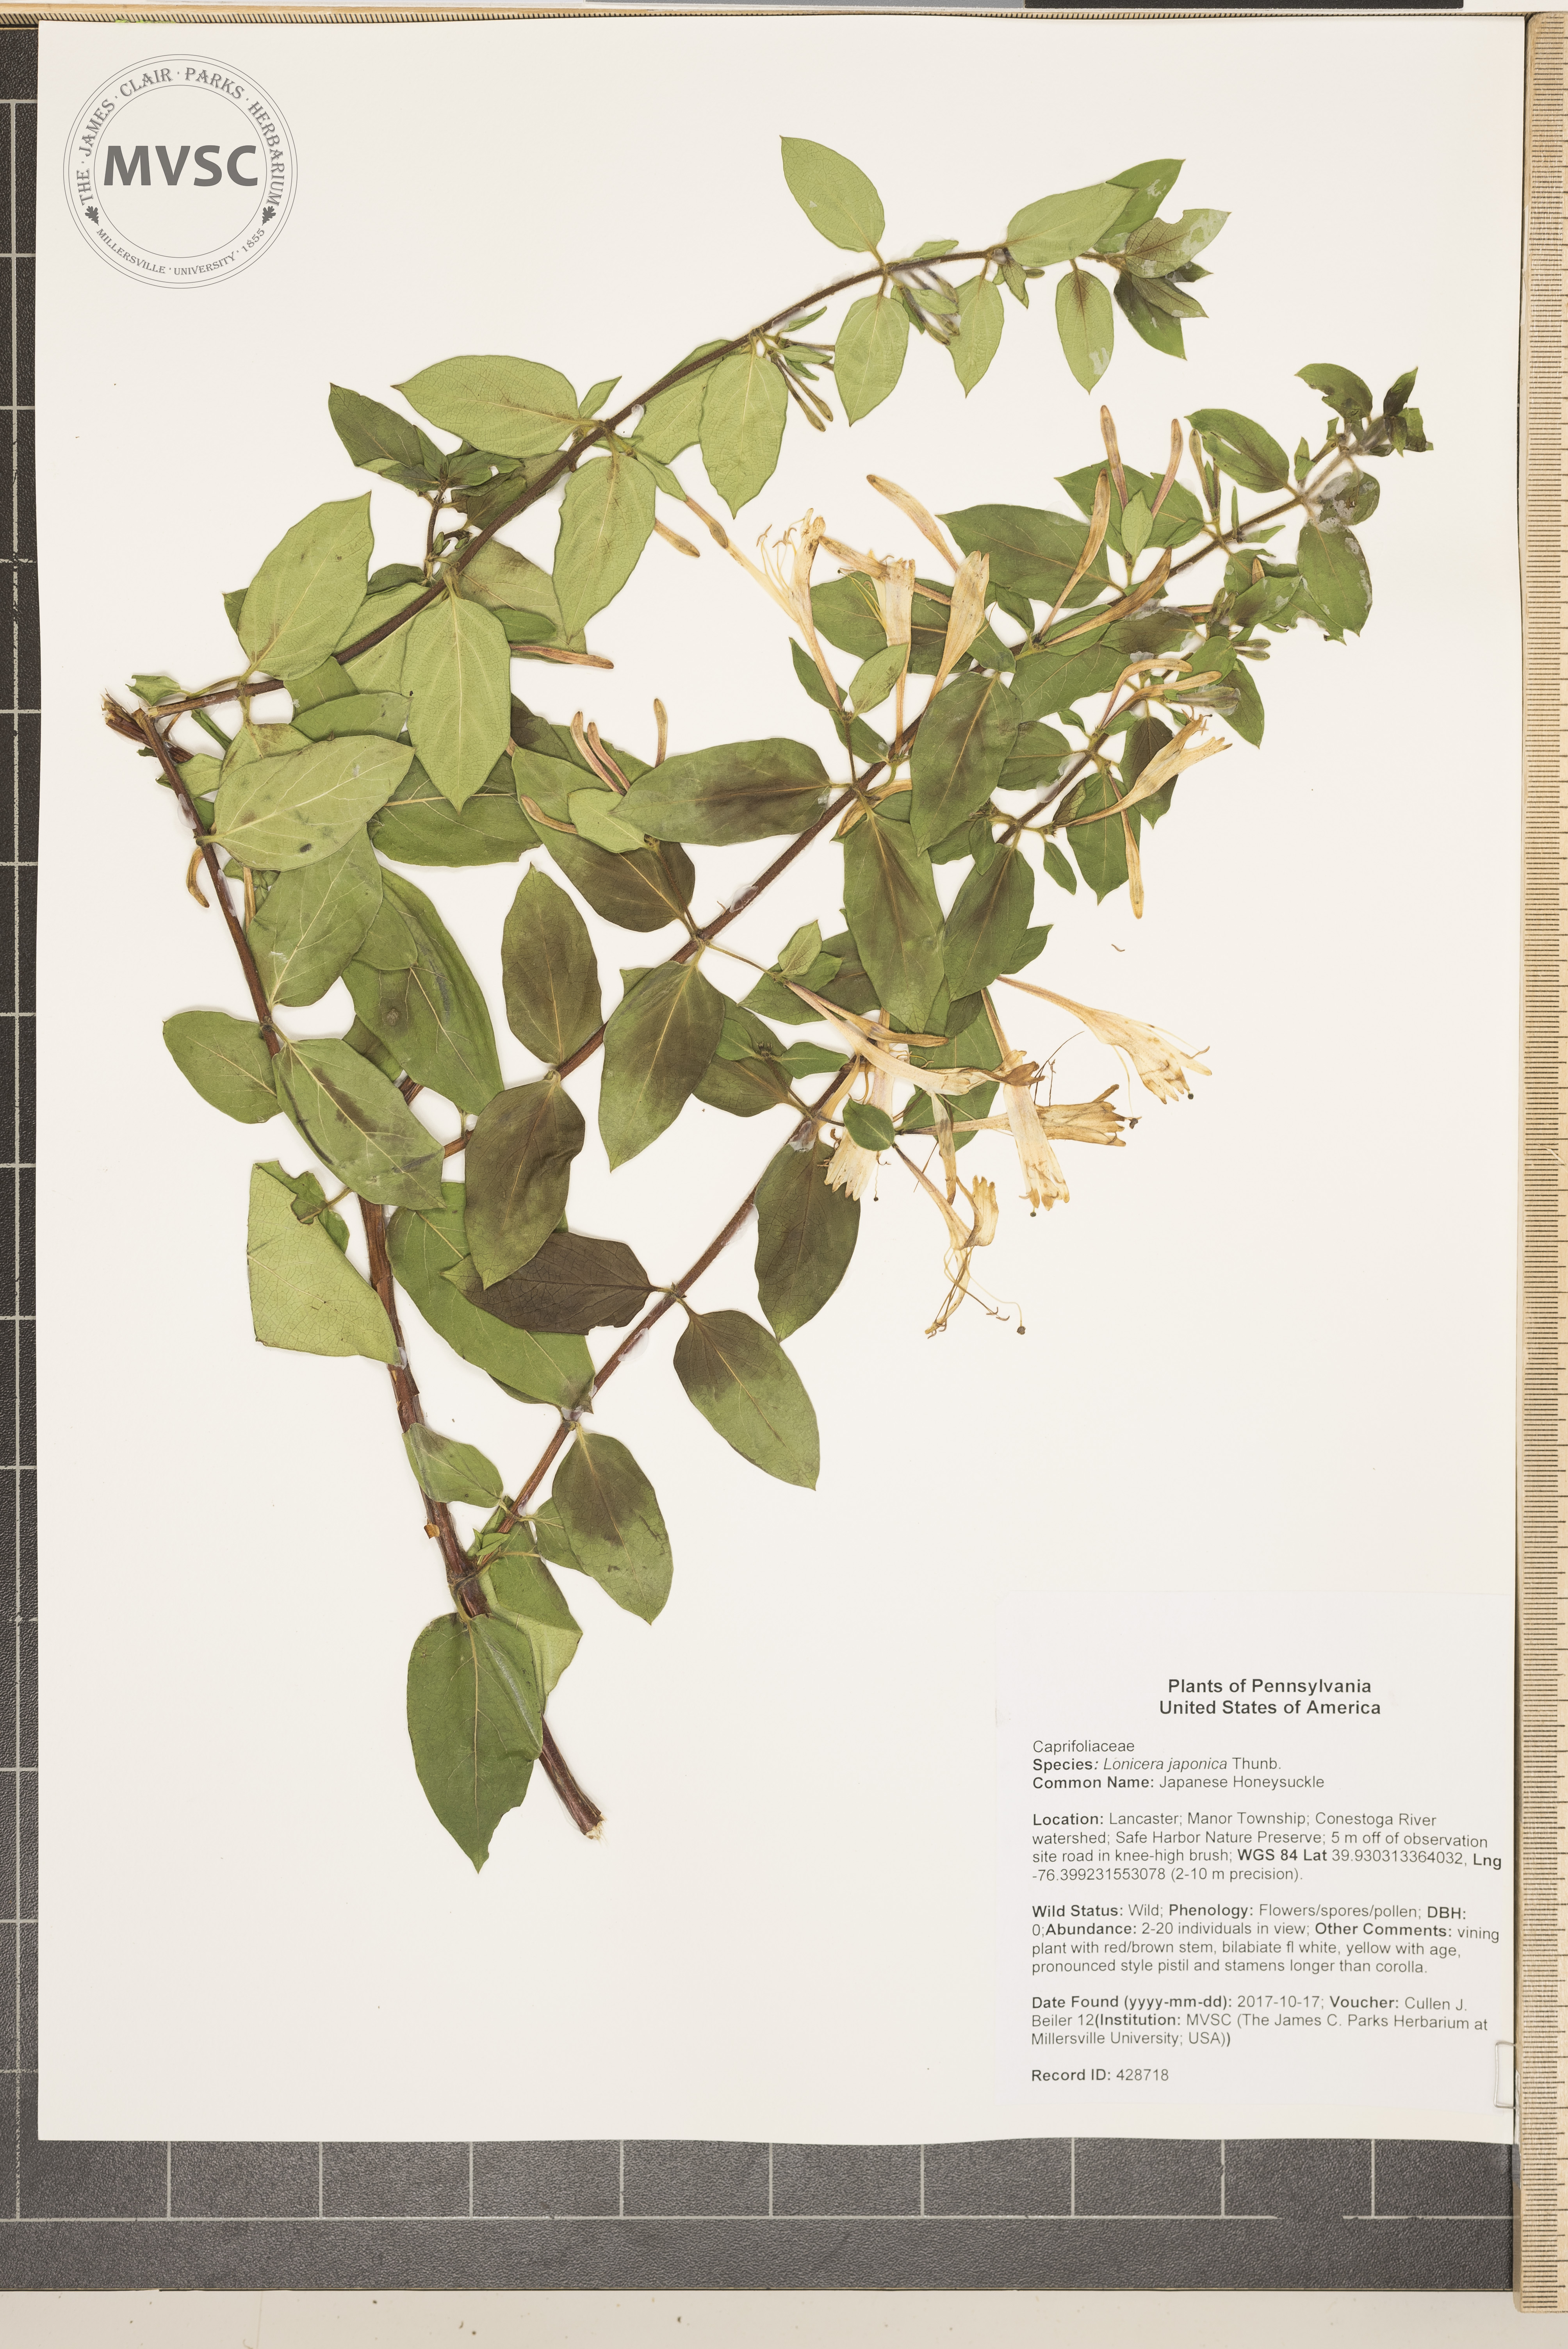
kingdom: Plantae
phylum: Tracheophyta
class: Magnoliopsida
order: Dipsacales
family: Caprifoliaceae
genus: Lonicera
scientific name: Lonicera japonica
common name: Japanese Honeysuckle
